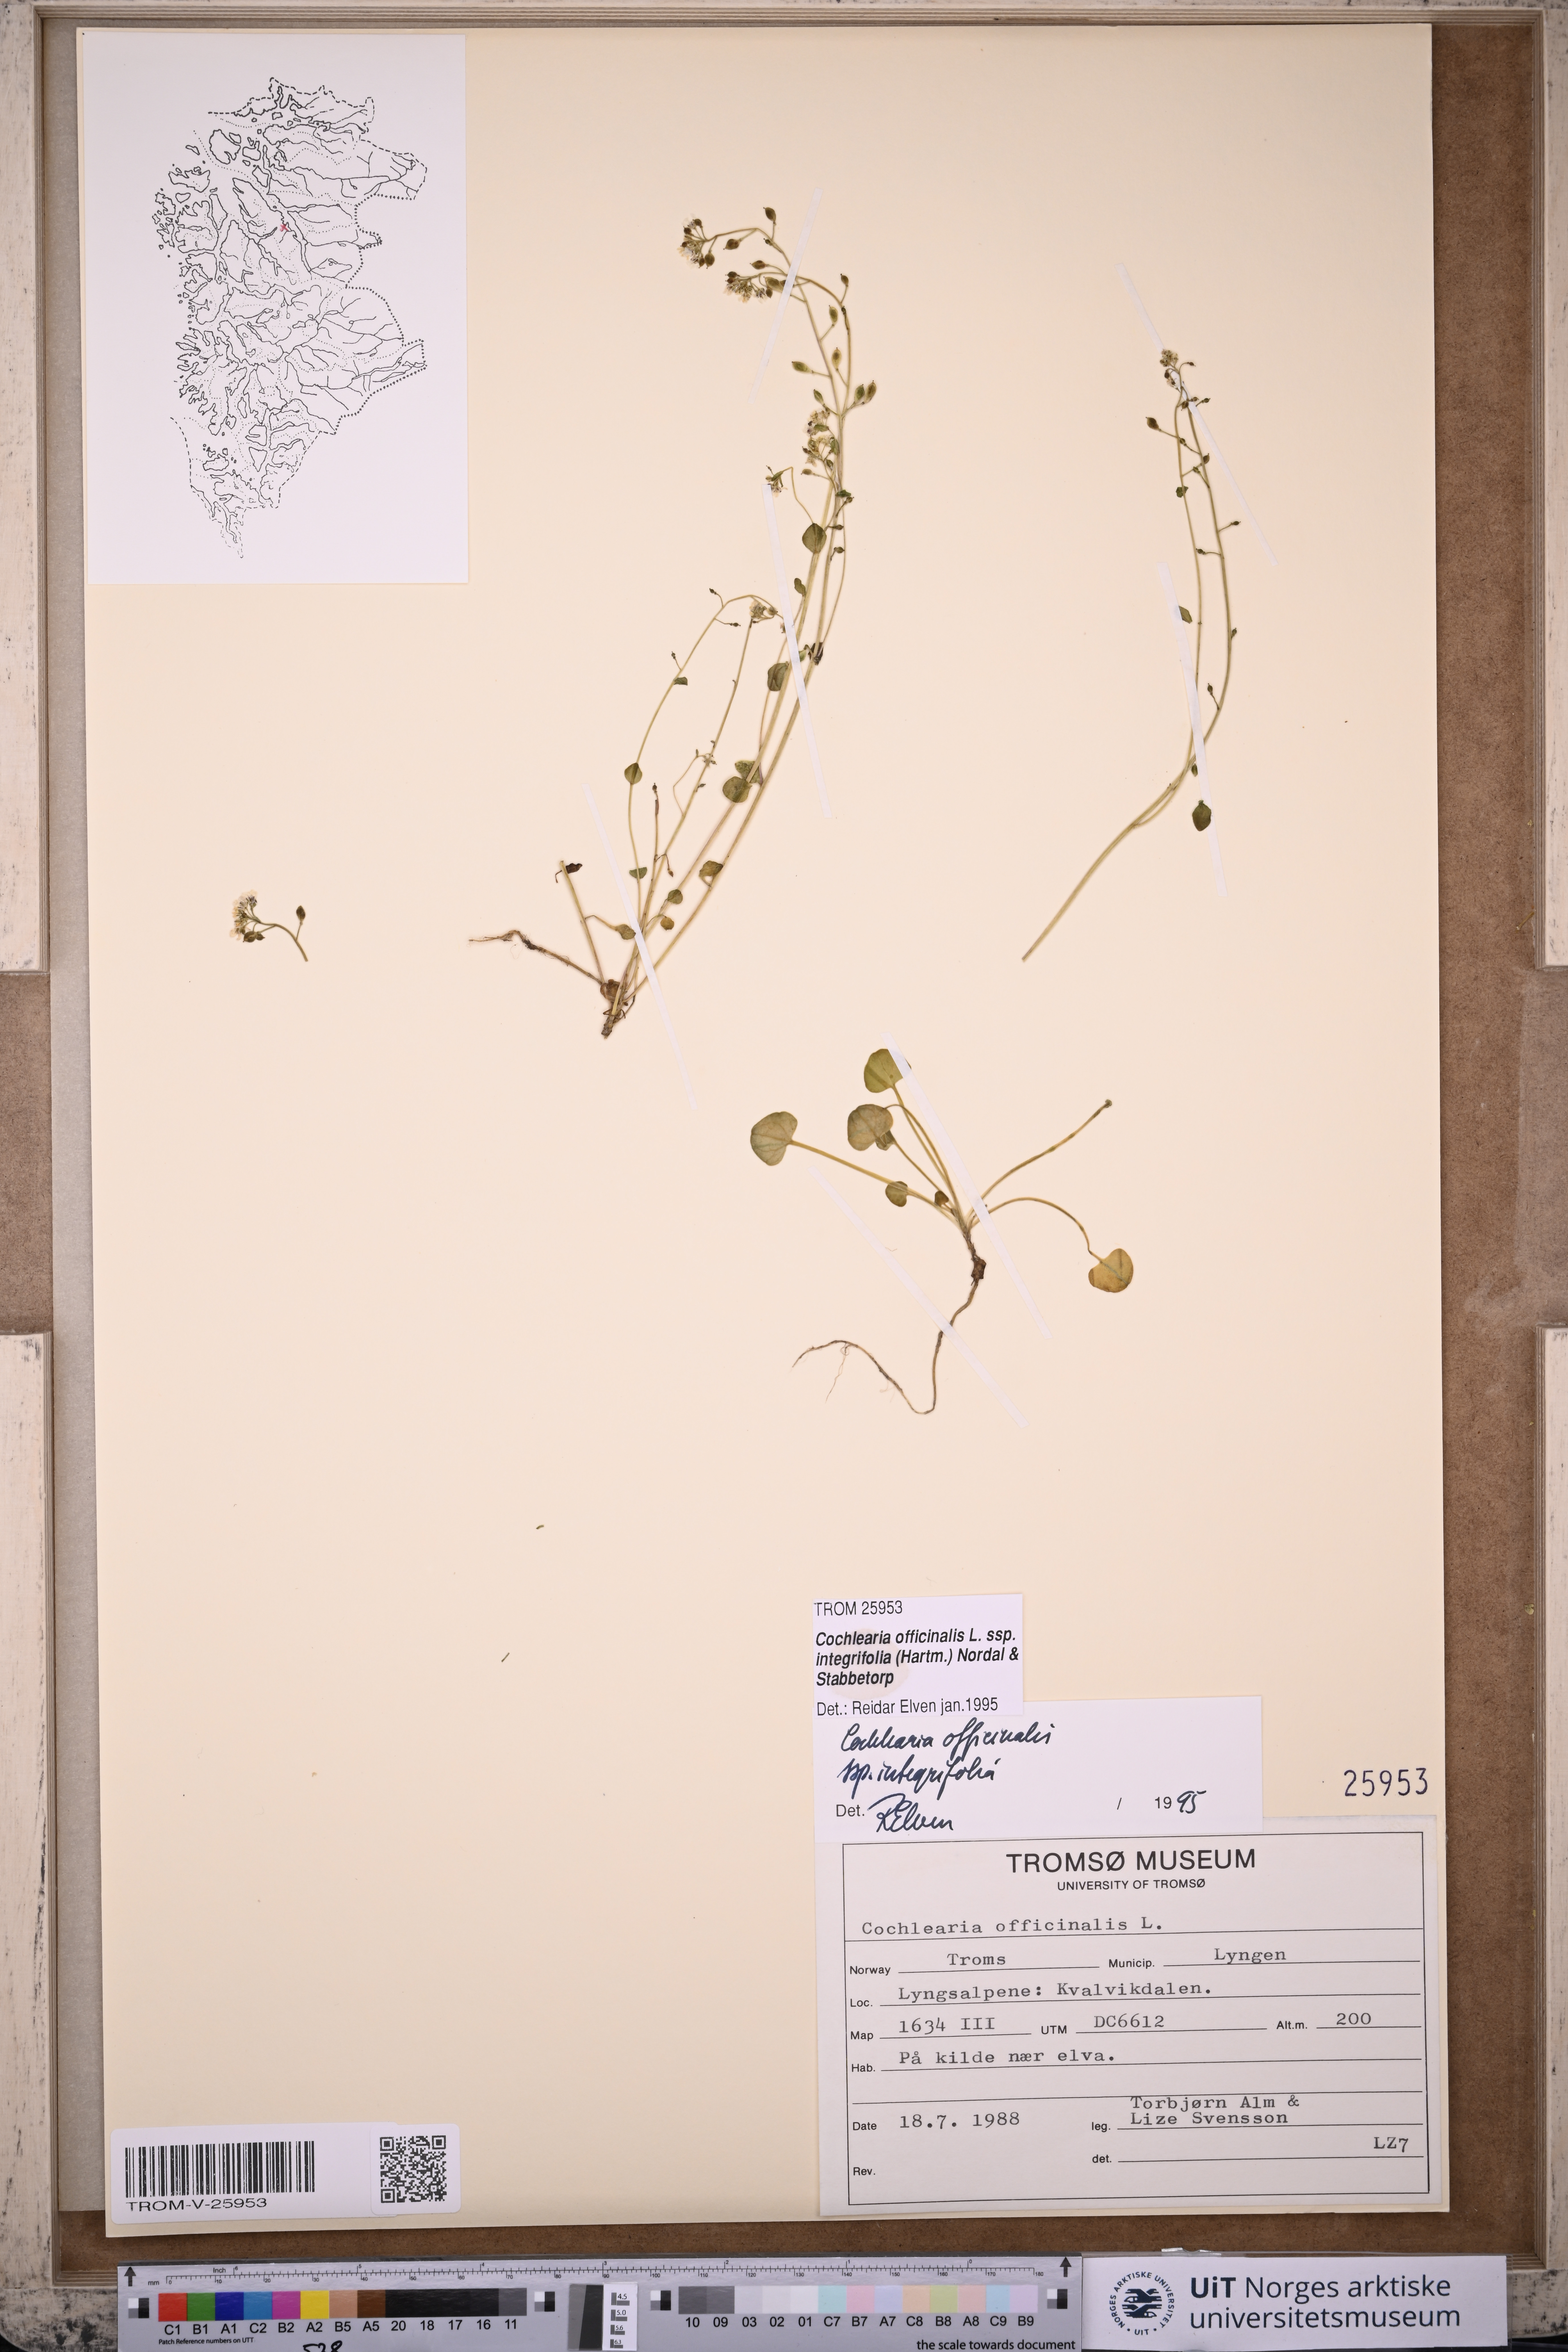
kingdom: Plantae
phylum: Tracheophyta
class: Magnoliopsida
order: Brassicales
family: Brassicaceae
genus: Cochlearia
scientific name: Cochlearia officinalis
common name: Scurvy-grass
